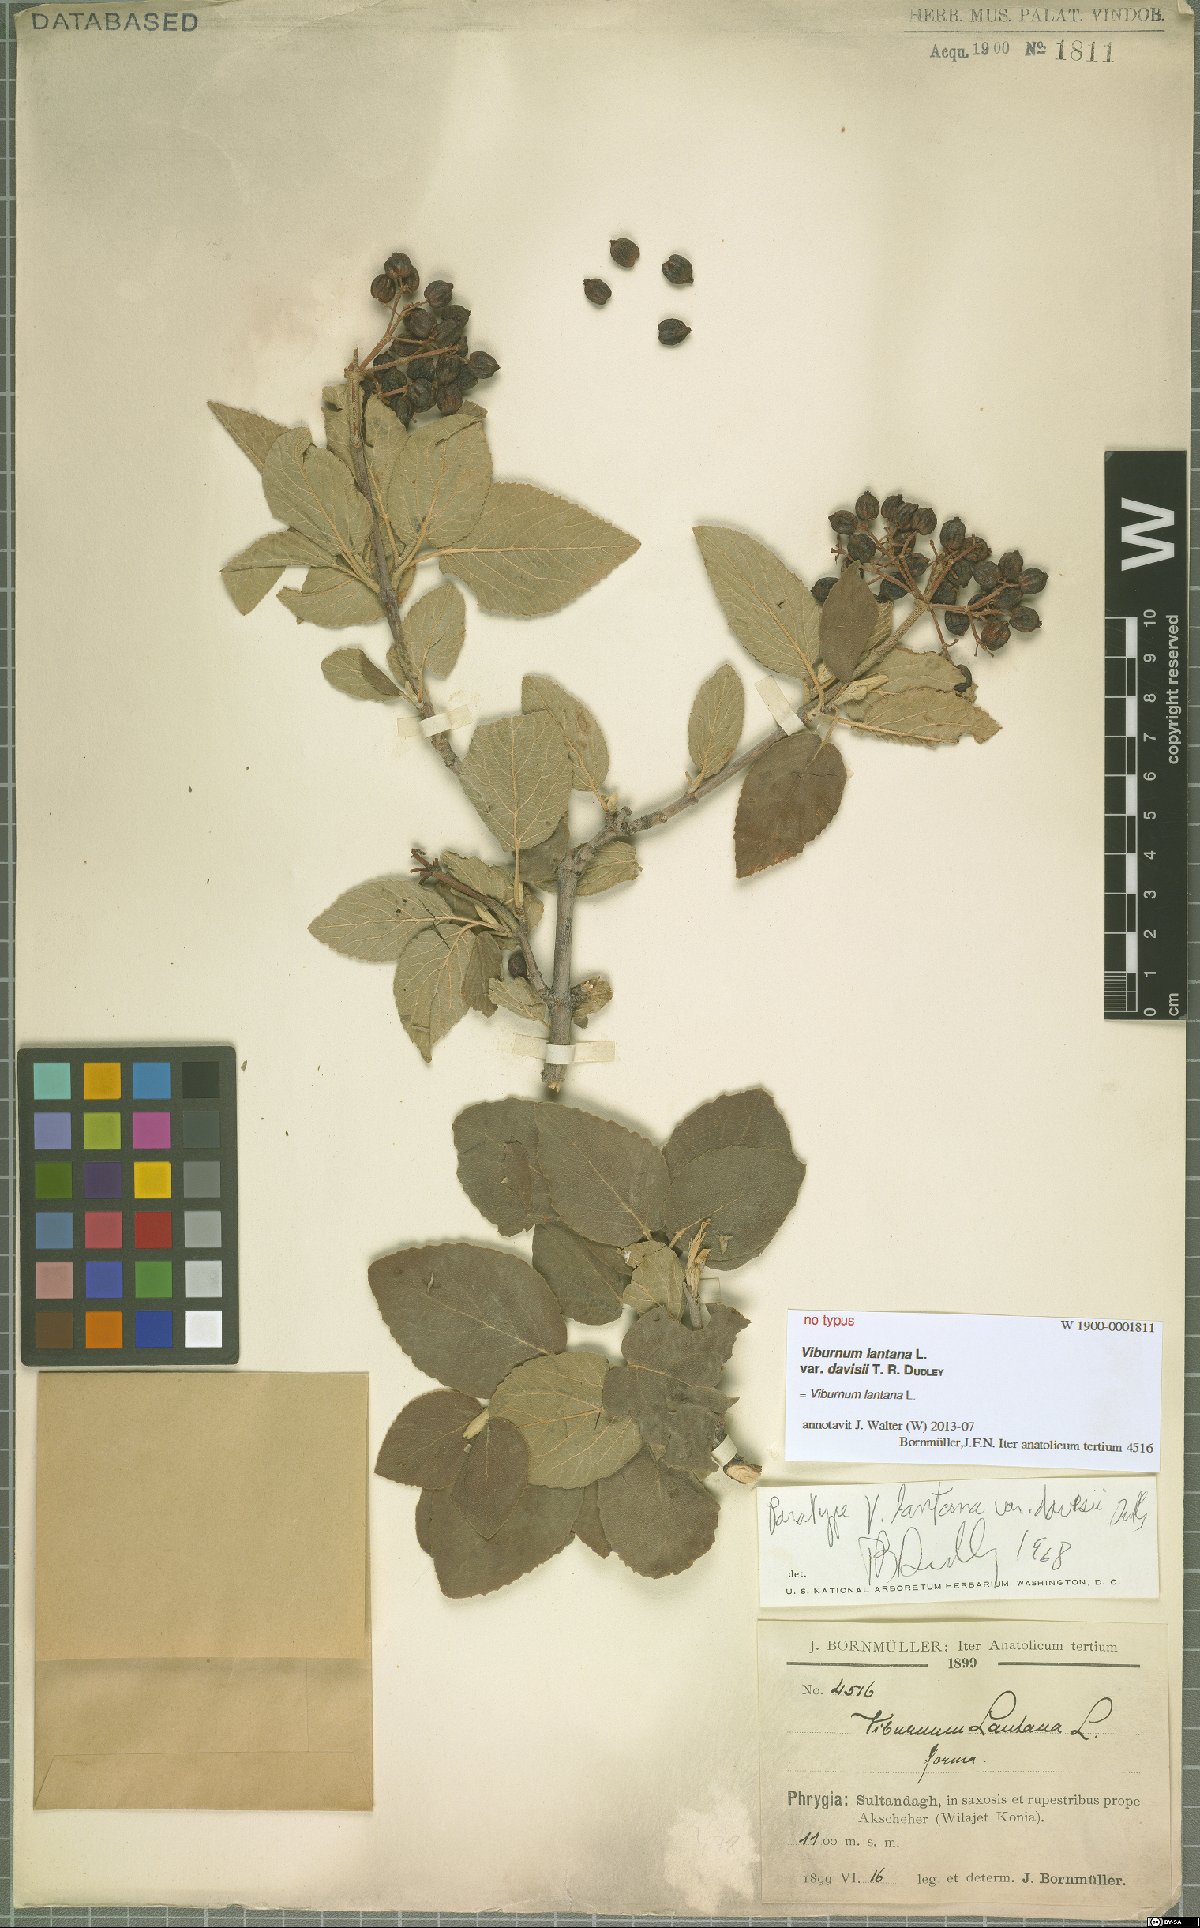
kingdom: Plantae
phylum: Tracheophyta
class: Magnoliopsida
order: Dipsacales
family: Viburnaceae
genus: Viburnum
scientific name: Viburnum lantana
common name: Wayfaring tree
